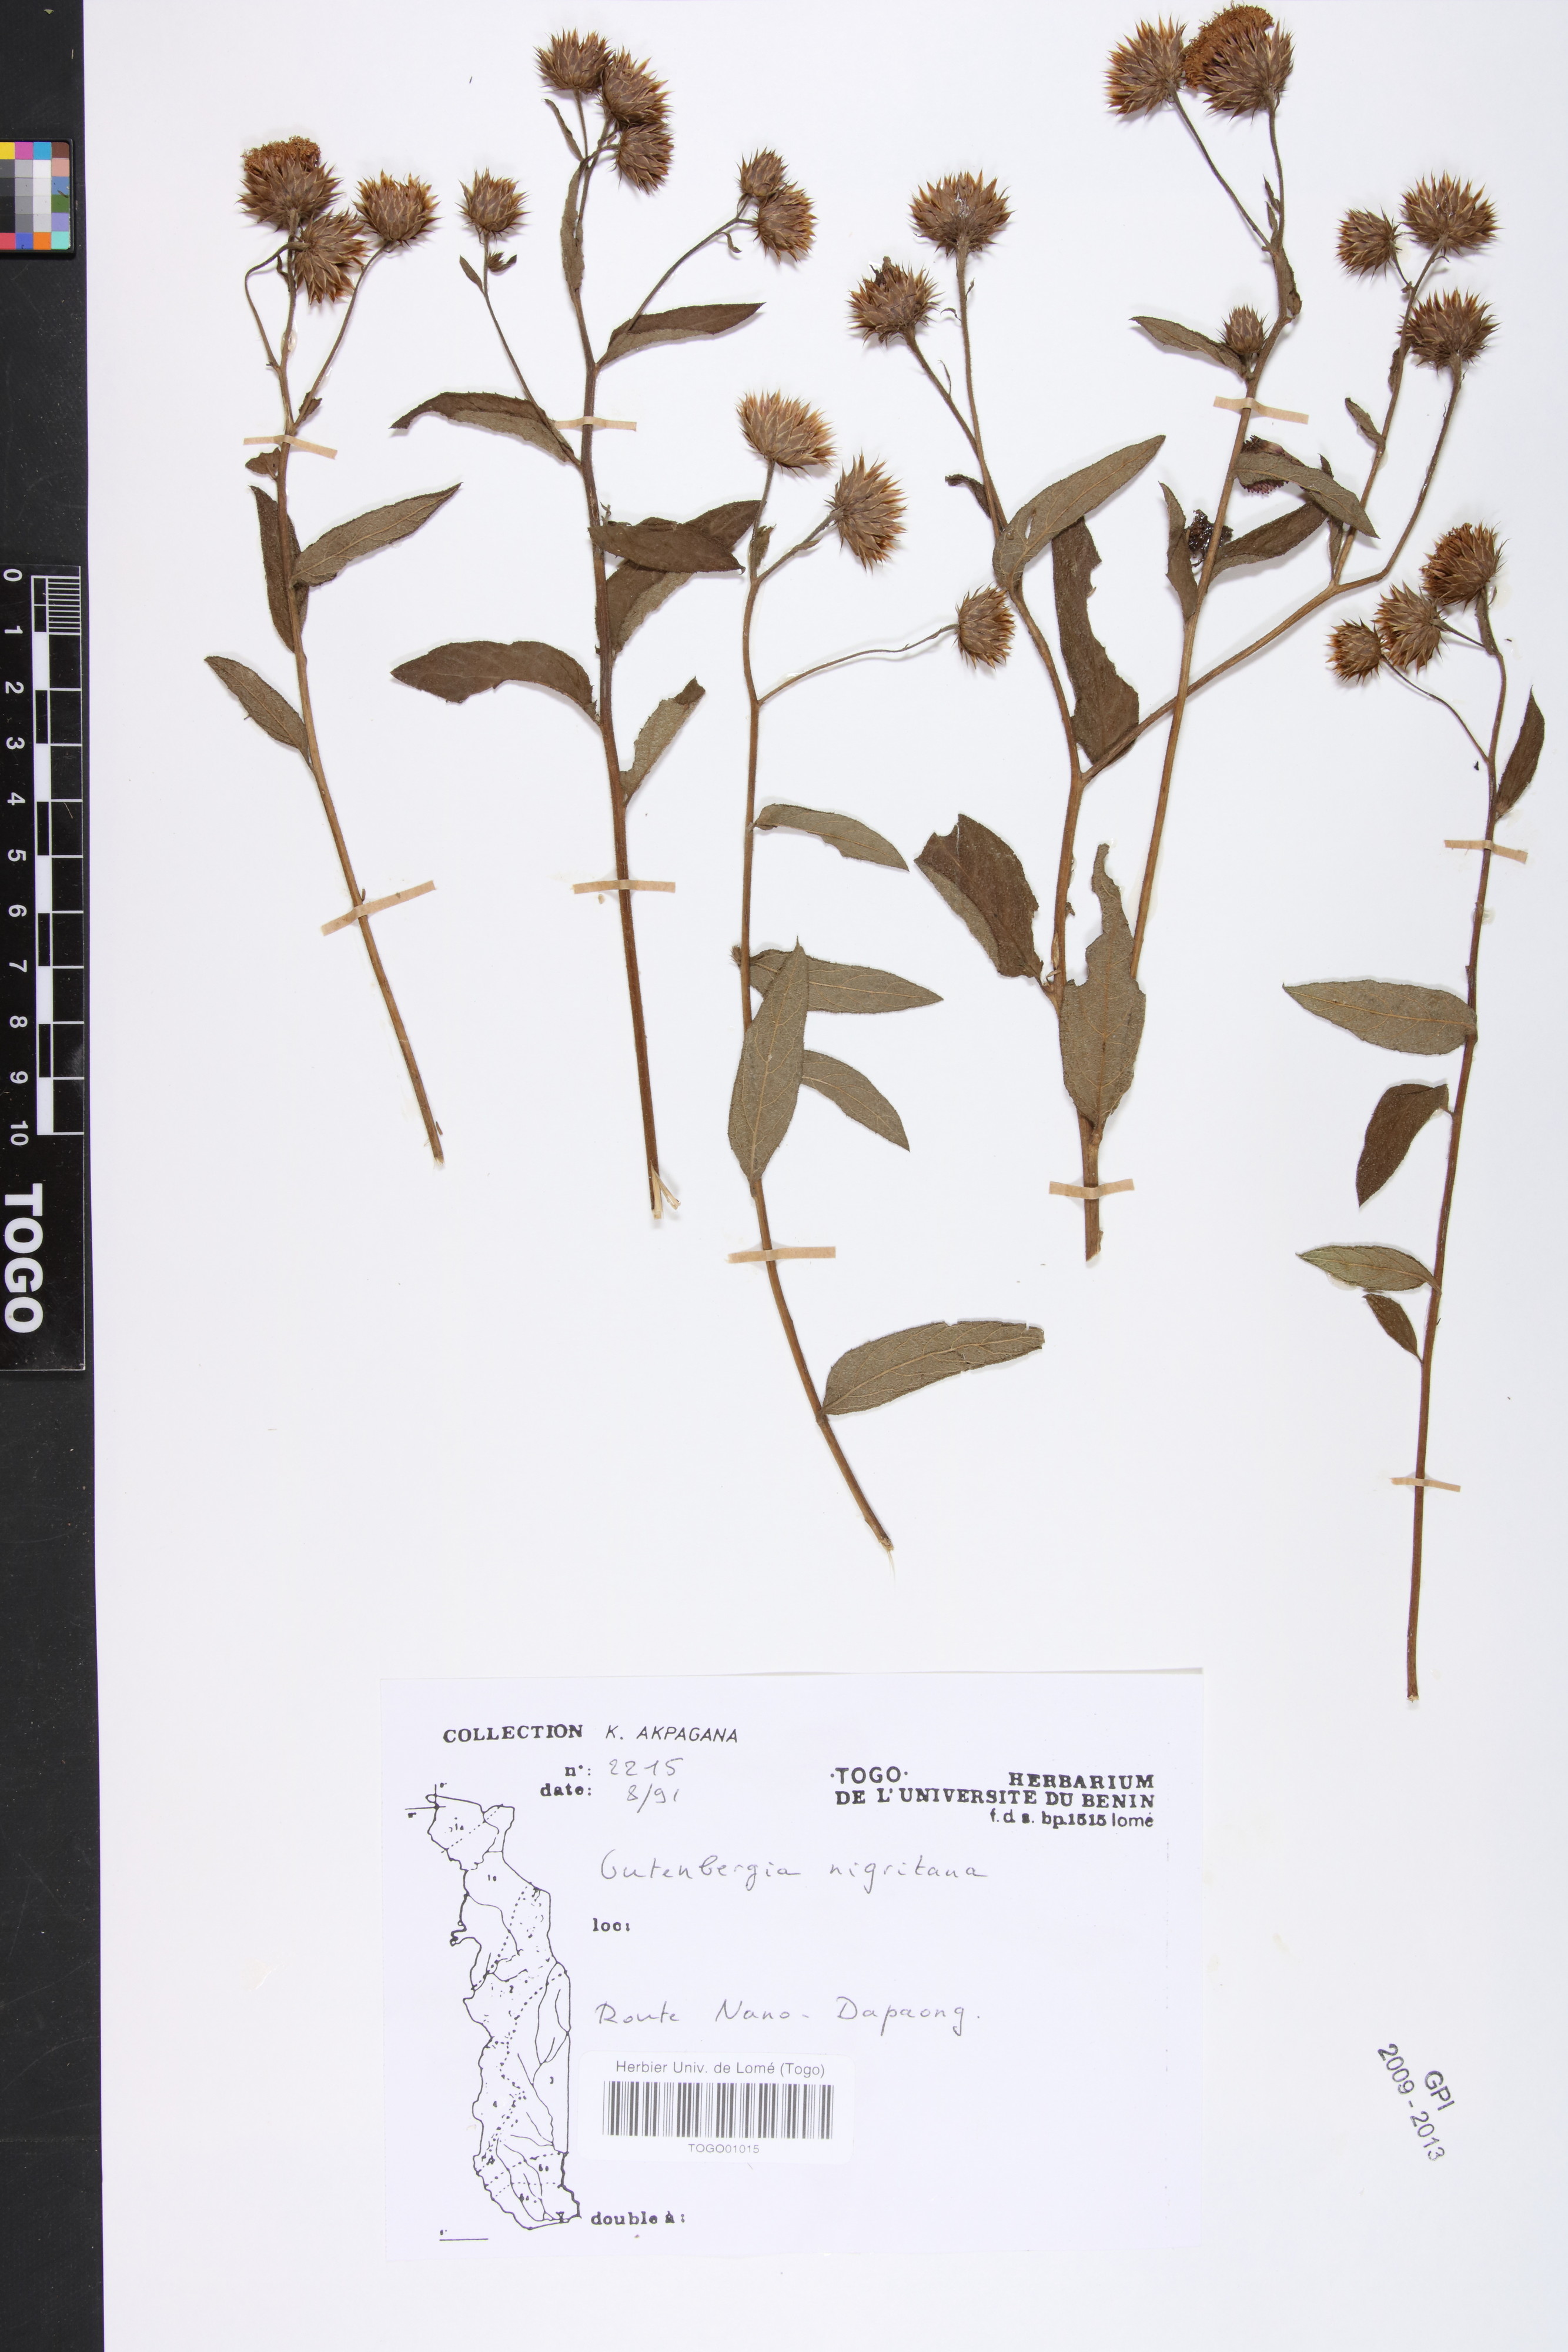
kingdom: Plantae
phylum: Tracheophyta
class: Magnoliopsida
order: Asterales
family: Asteraceae
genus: Kinghamia
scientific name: Kinghamia nigritana
